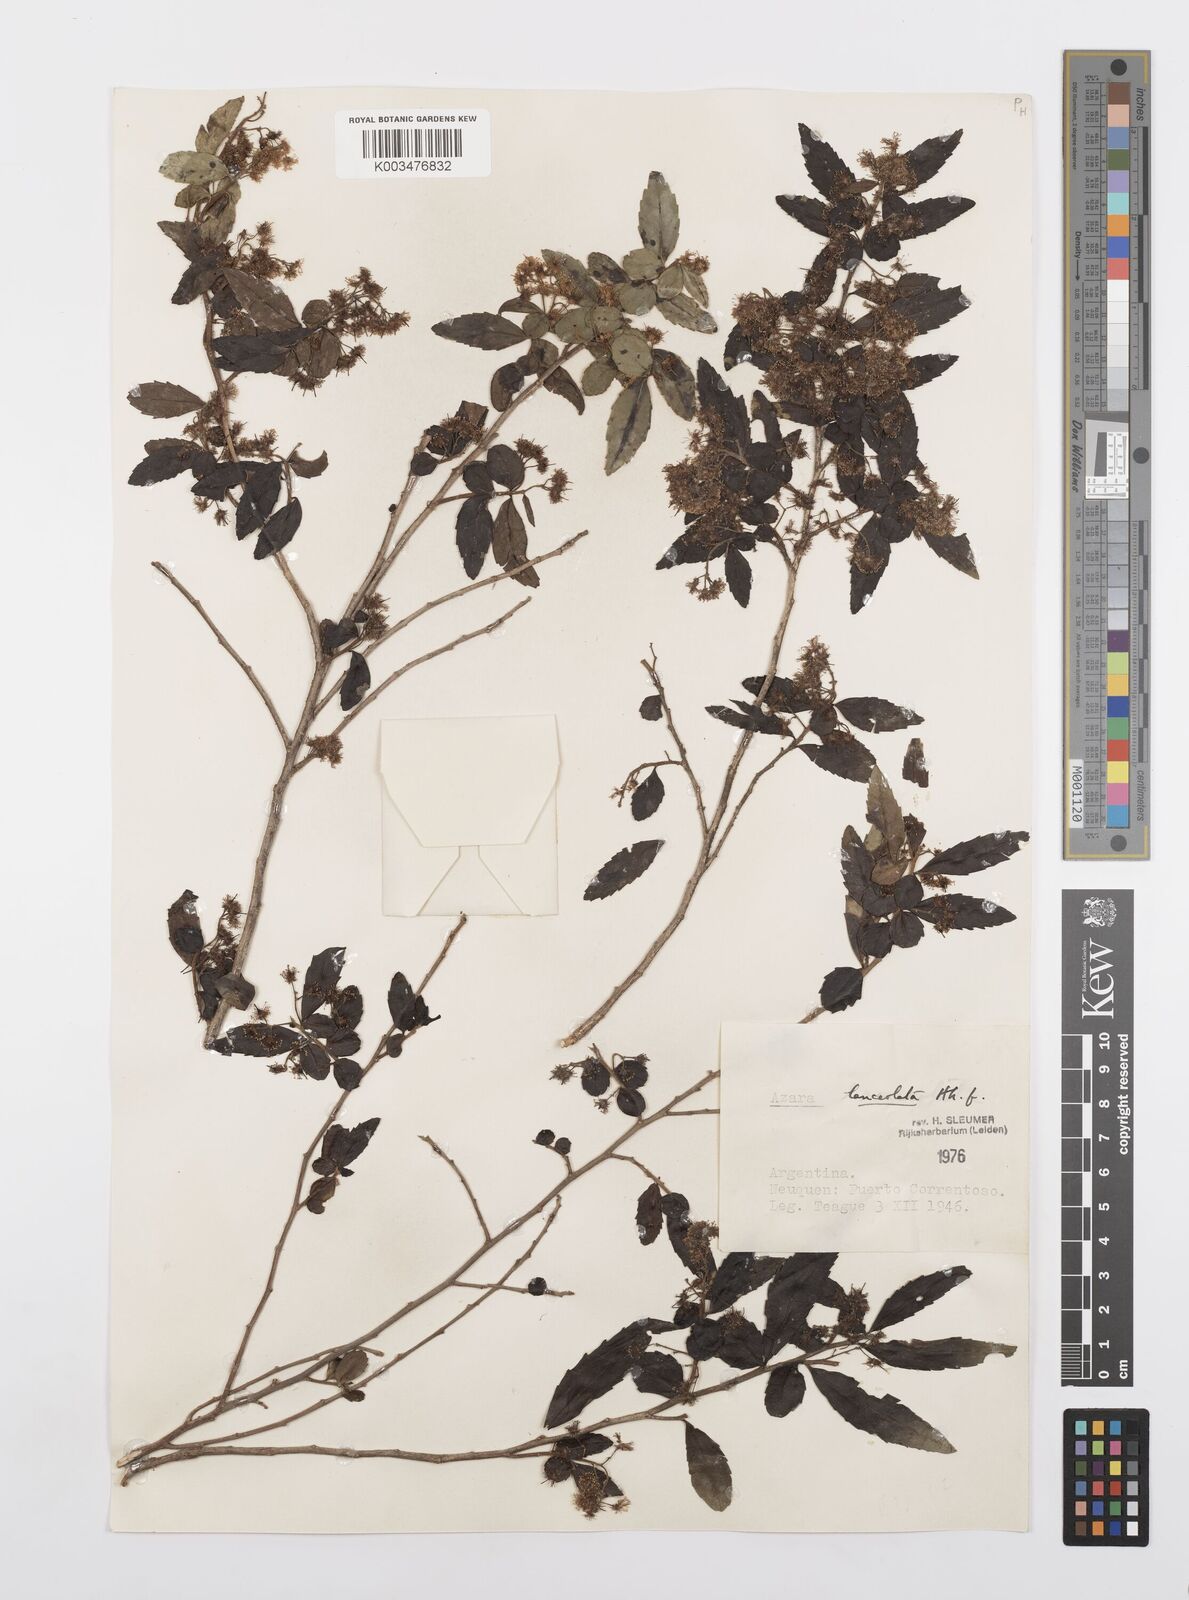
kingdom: Plantae
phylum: Tracheophyta
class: Magnoliopsida
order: Malpighiales
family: Salicaceae
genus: Azara
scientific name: Azara lanceolata
